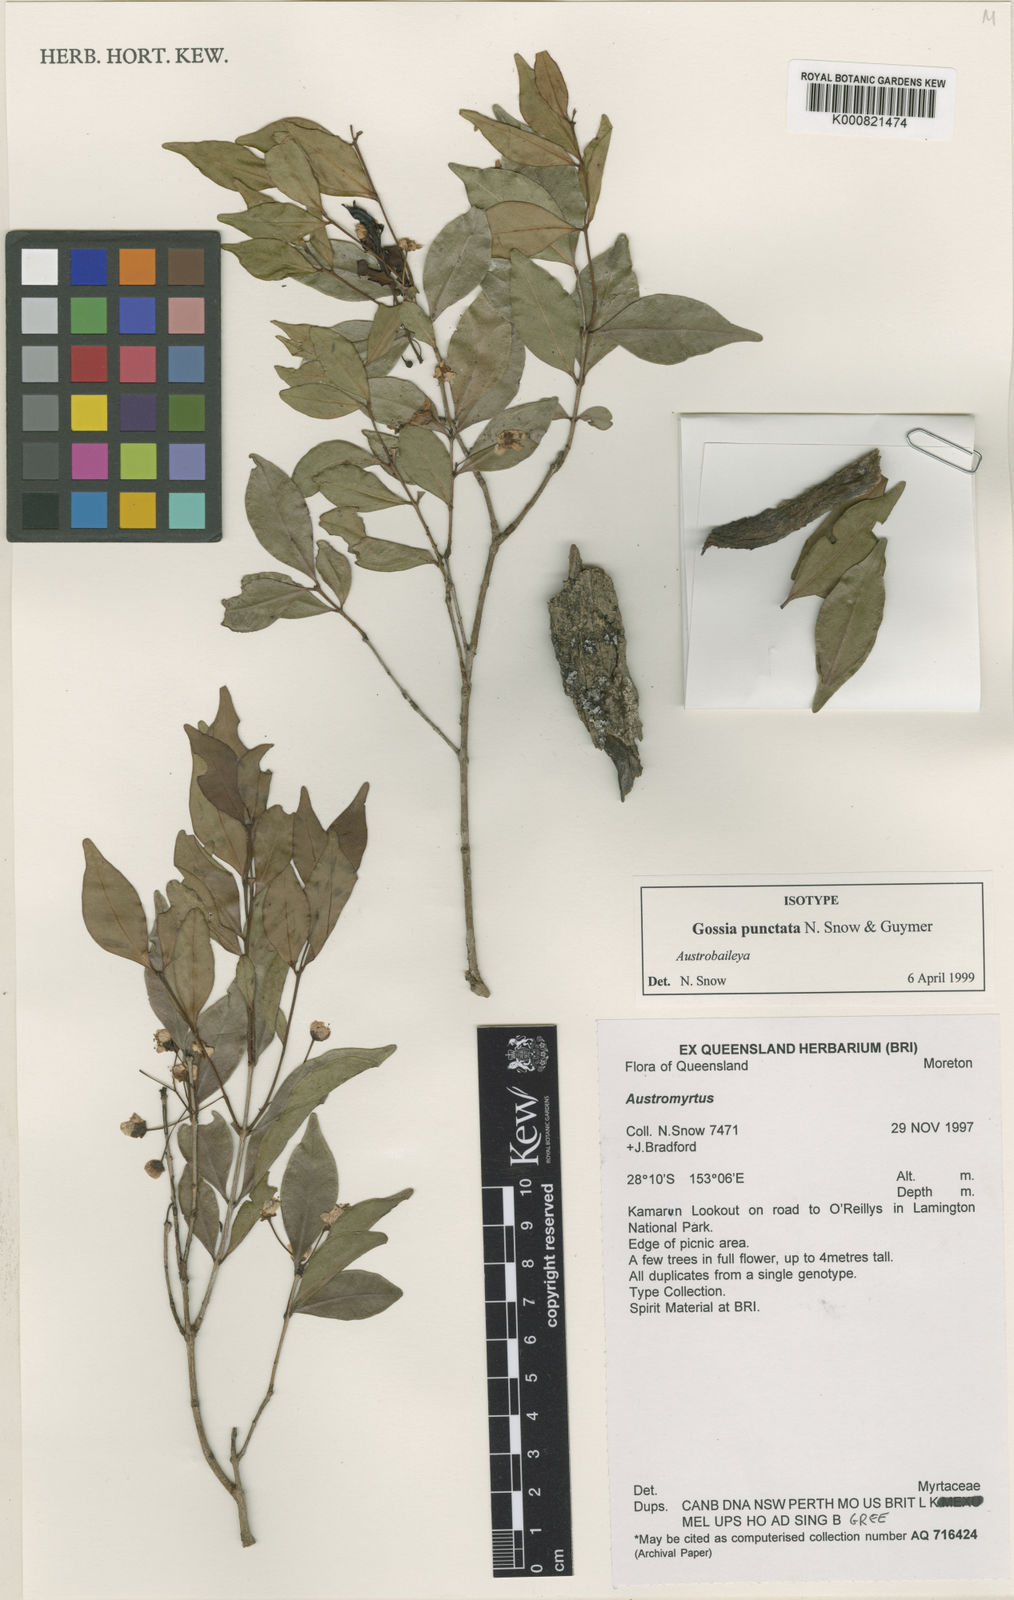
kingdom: Plantae
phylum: Tracheophyta
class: Magnoliopsida
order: Myrtales
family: Myrtaceae
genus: Gossia
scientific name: Gossia punctata
